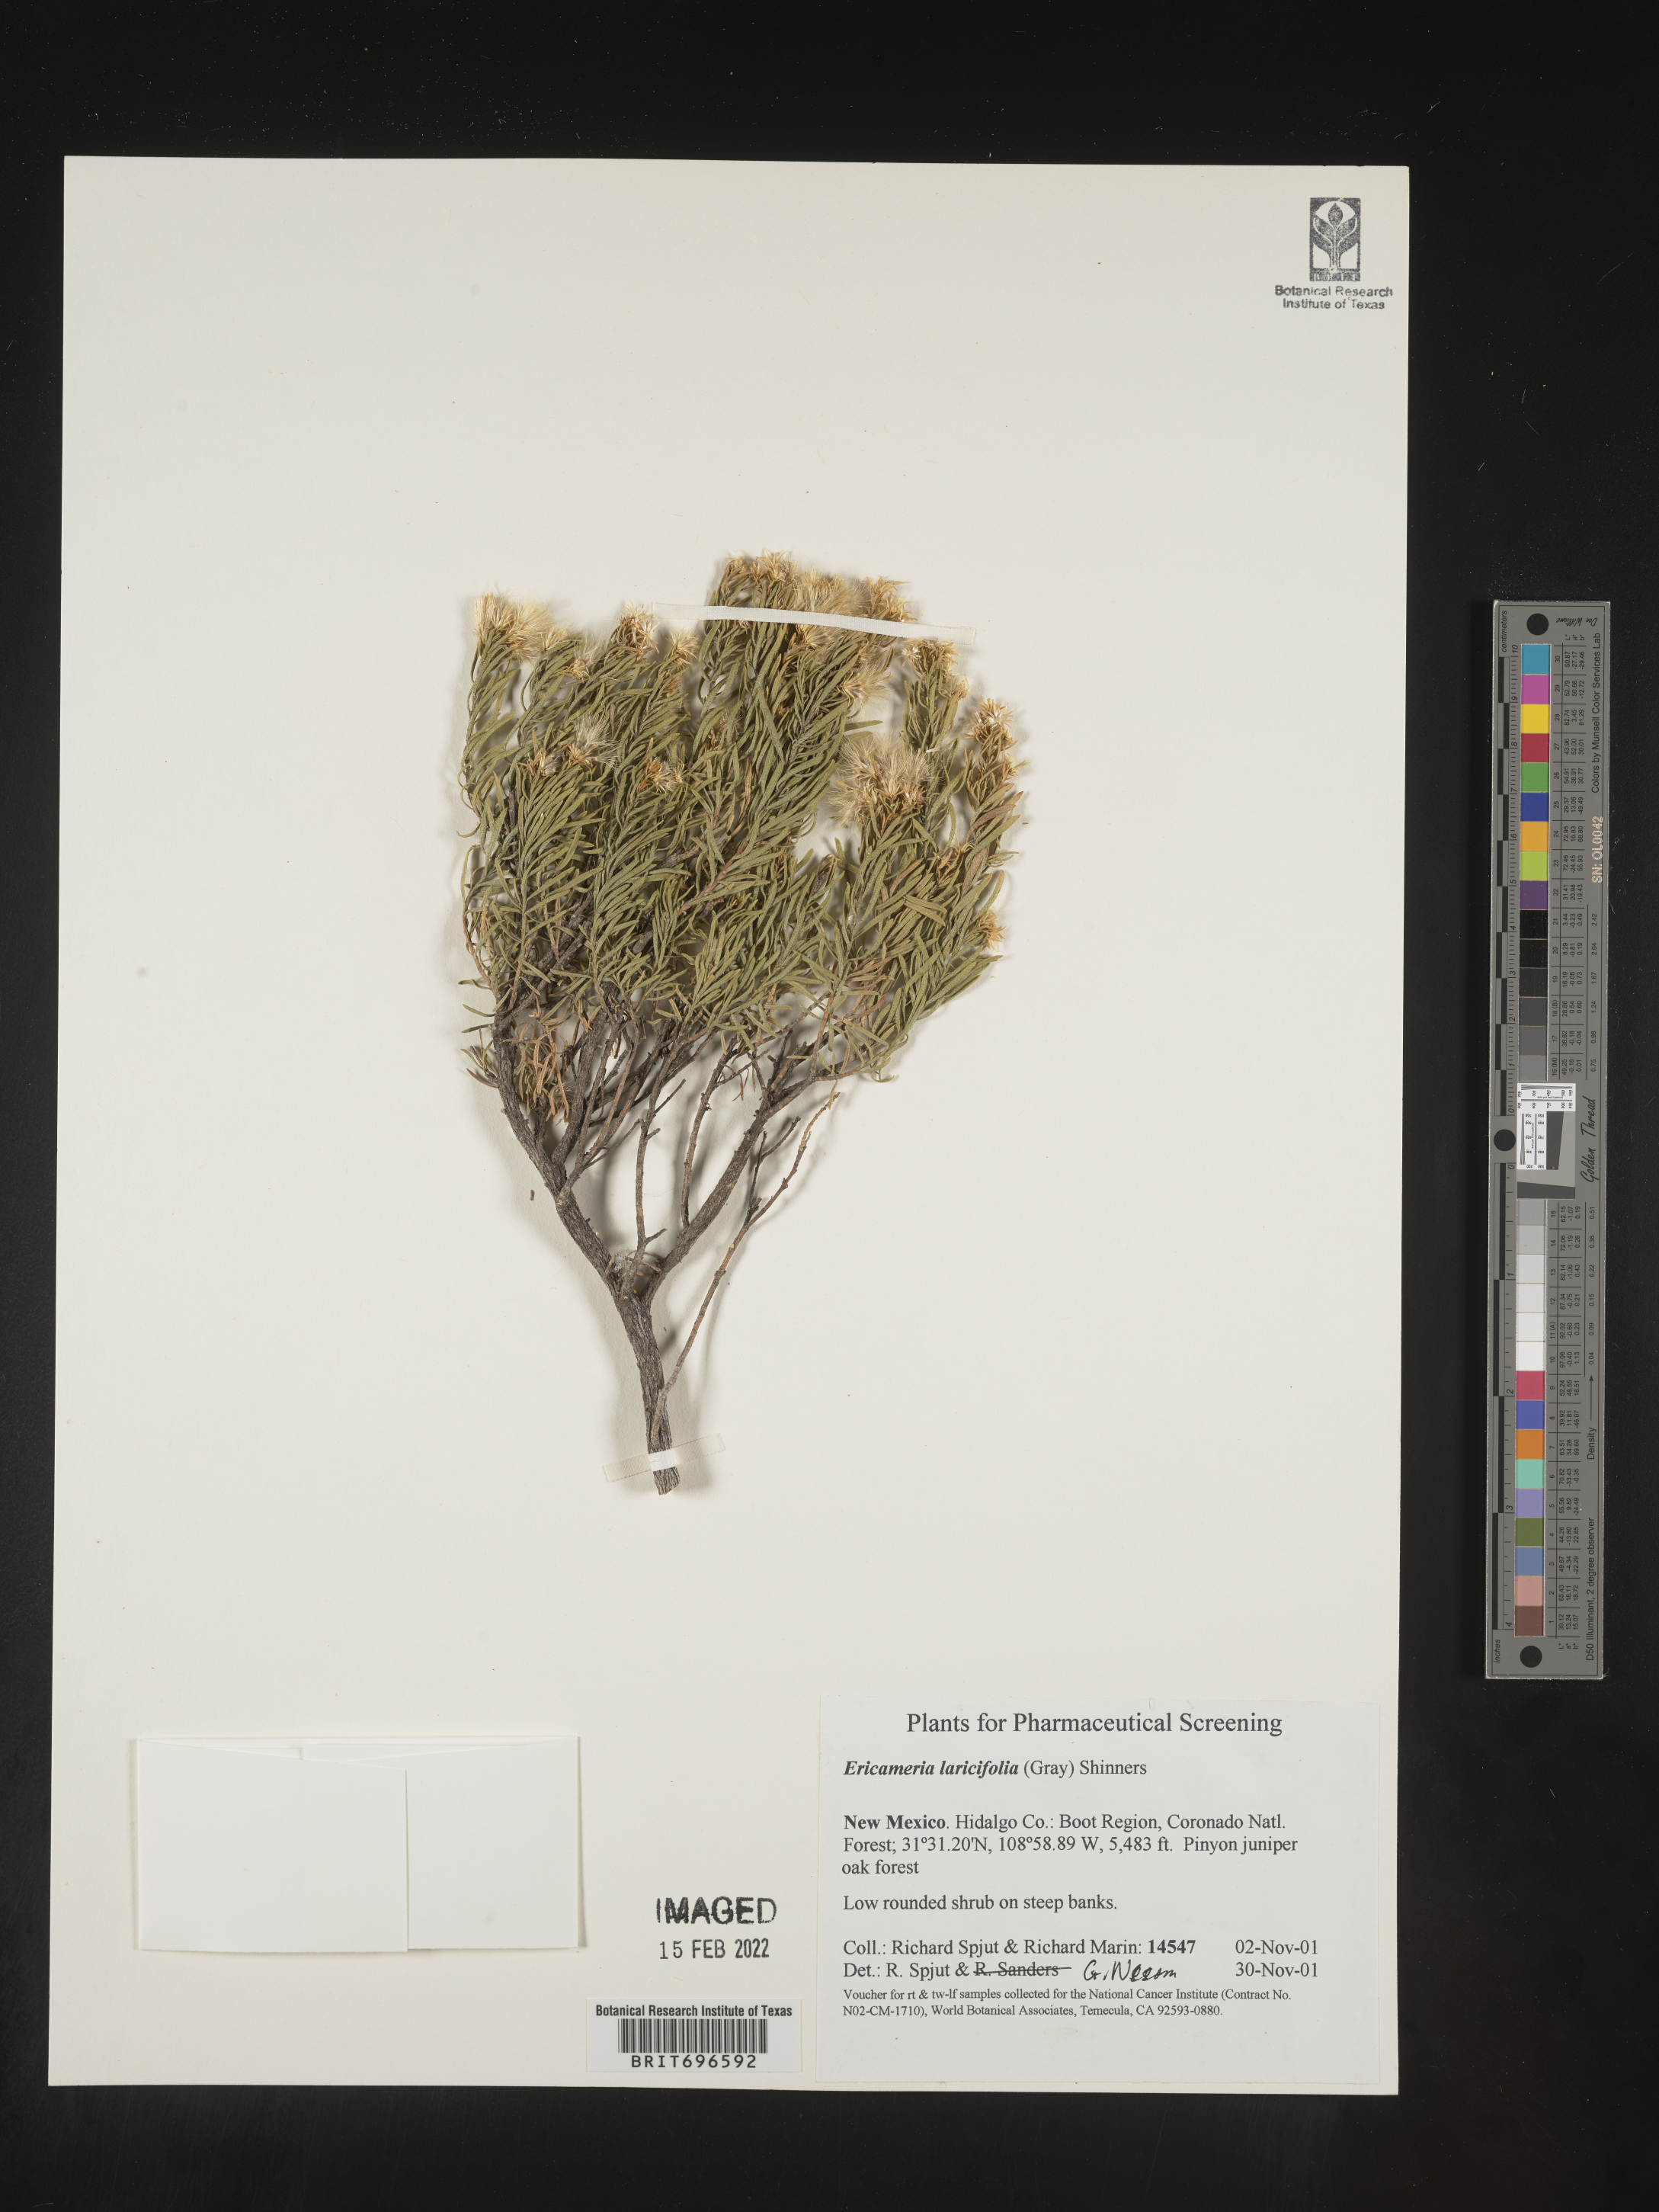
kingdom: Plantae
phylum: Tracheophyta
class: Magnoliopsida
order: Asterales
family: Asteraceae
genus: Ericameria
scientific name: Ericameria laricifolia
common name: Turpentine-bush
